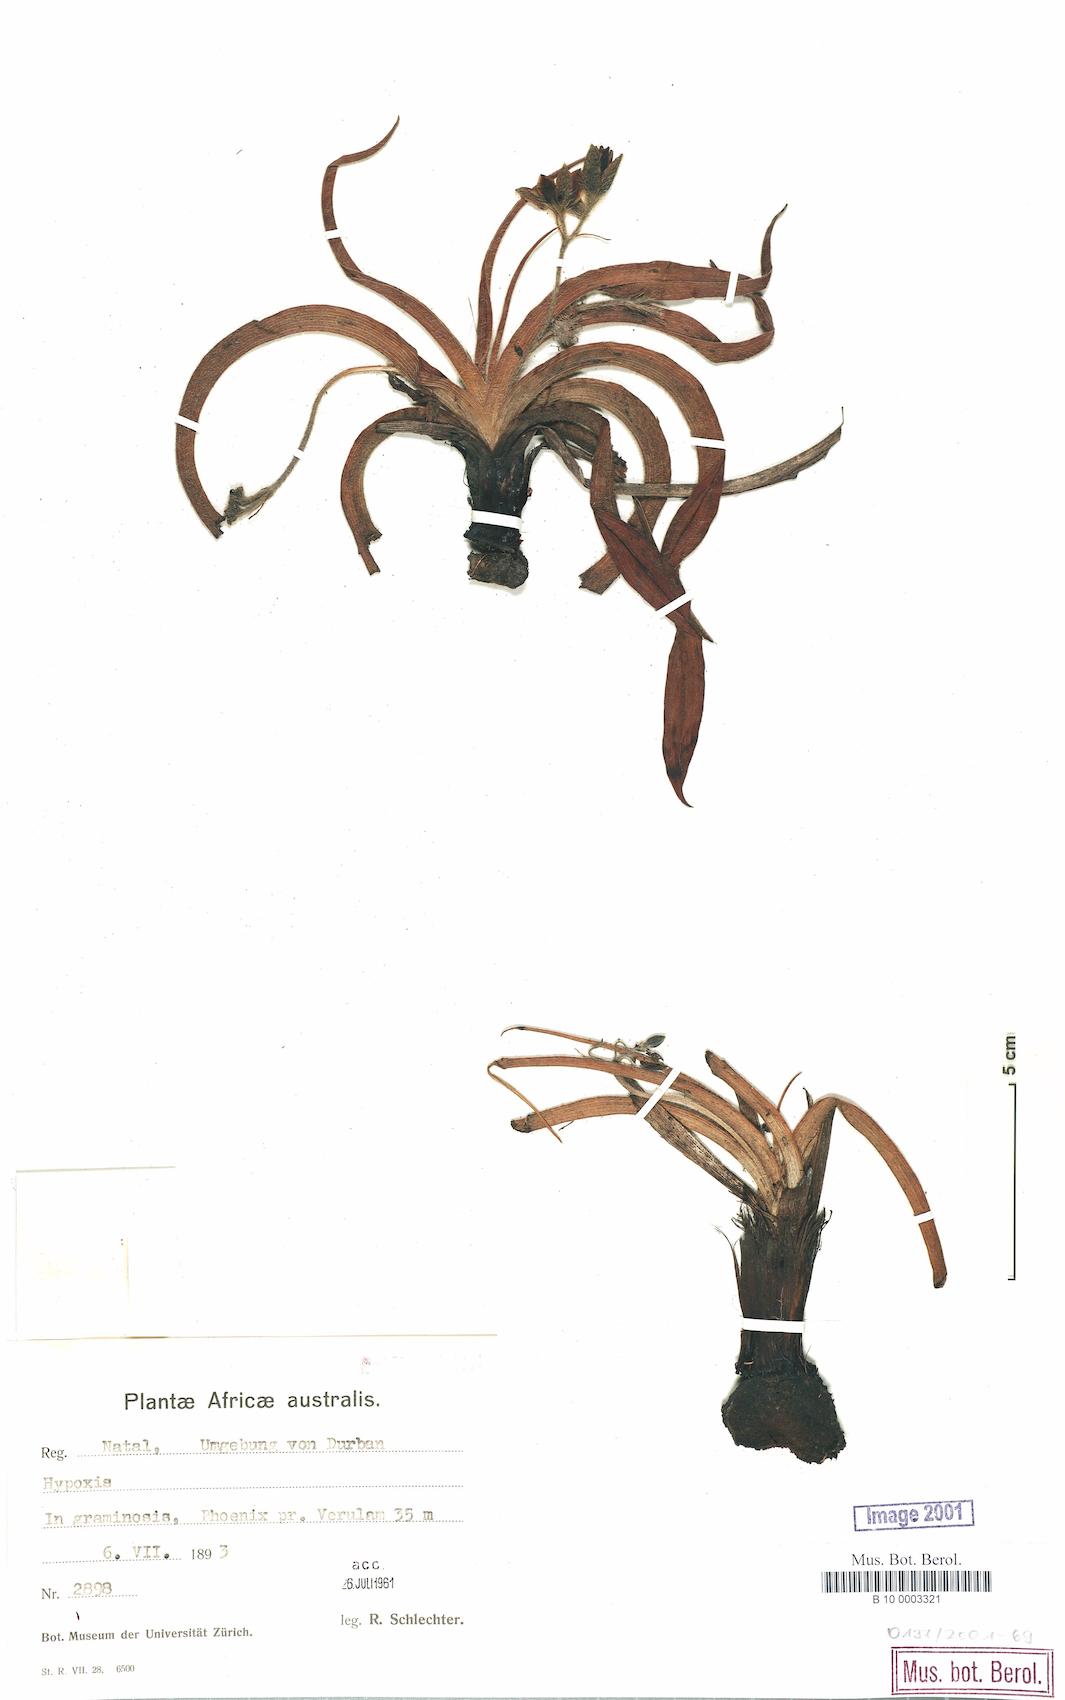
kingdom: Plantae
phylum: Tracheophyta
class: Liliopsida
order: Asparagales
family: Hypoxidaceae
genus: Hypoxis
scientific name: Hypoxis
